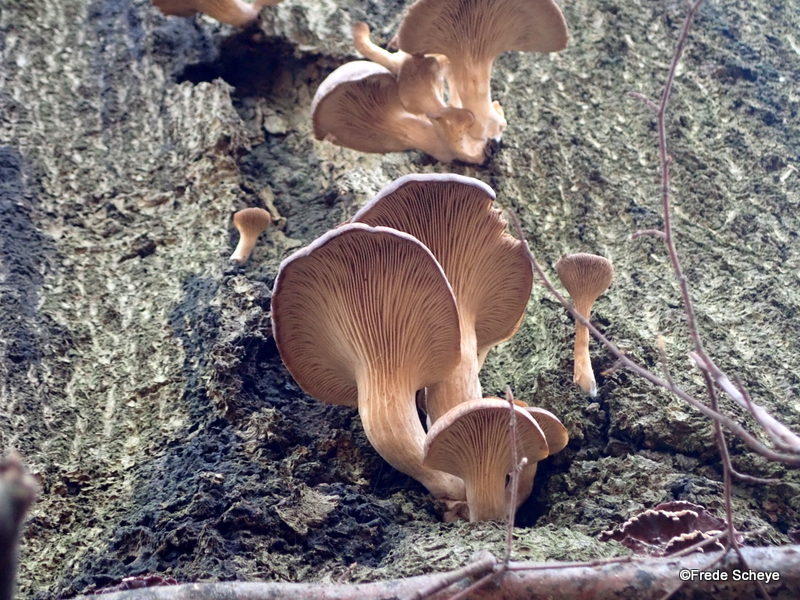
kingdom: Fungi
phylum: Basidiomycota
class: Agaricomycetes
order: Agaricales
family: Pleurotaceae
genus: Pleurotus
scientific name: Pleurotus ostreatus
